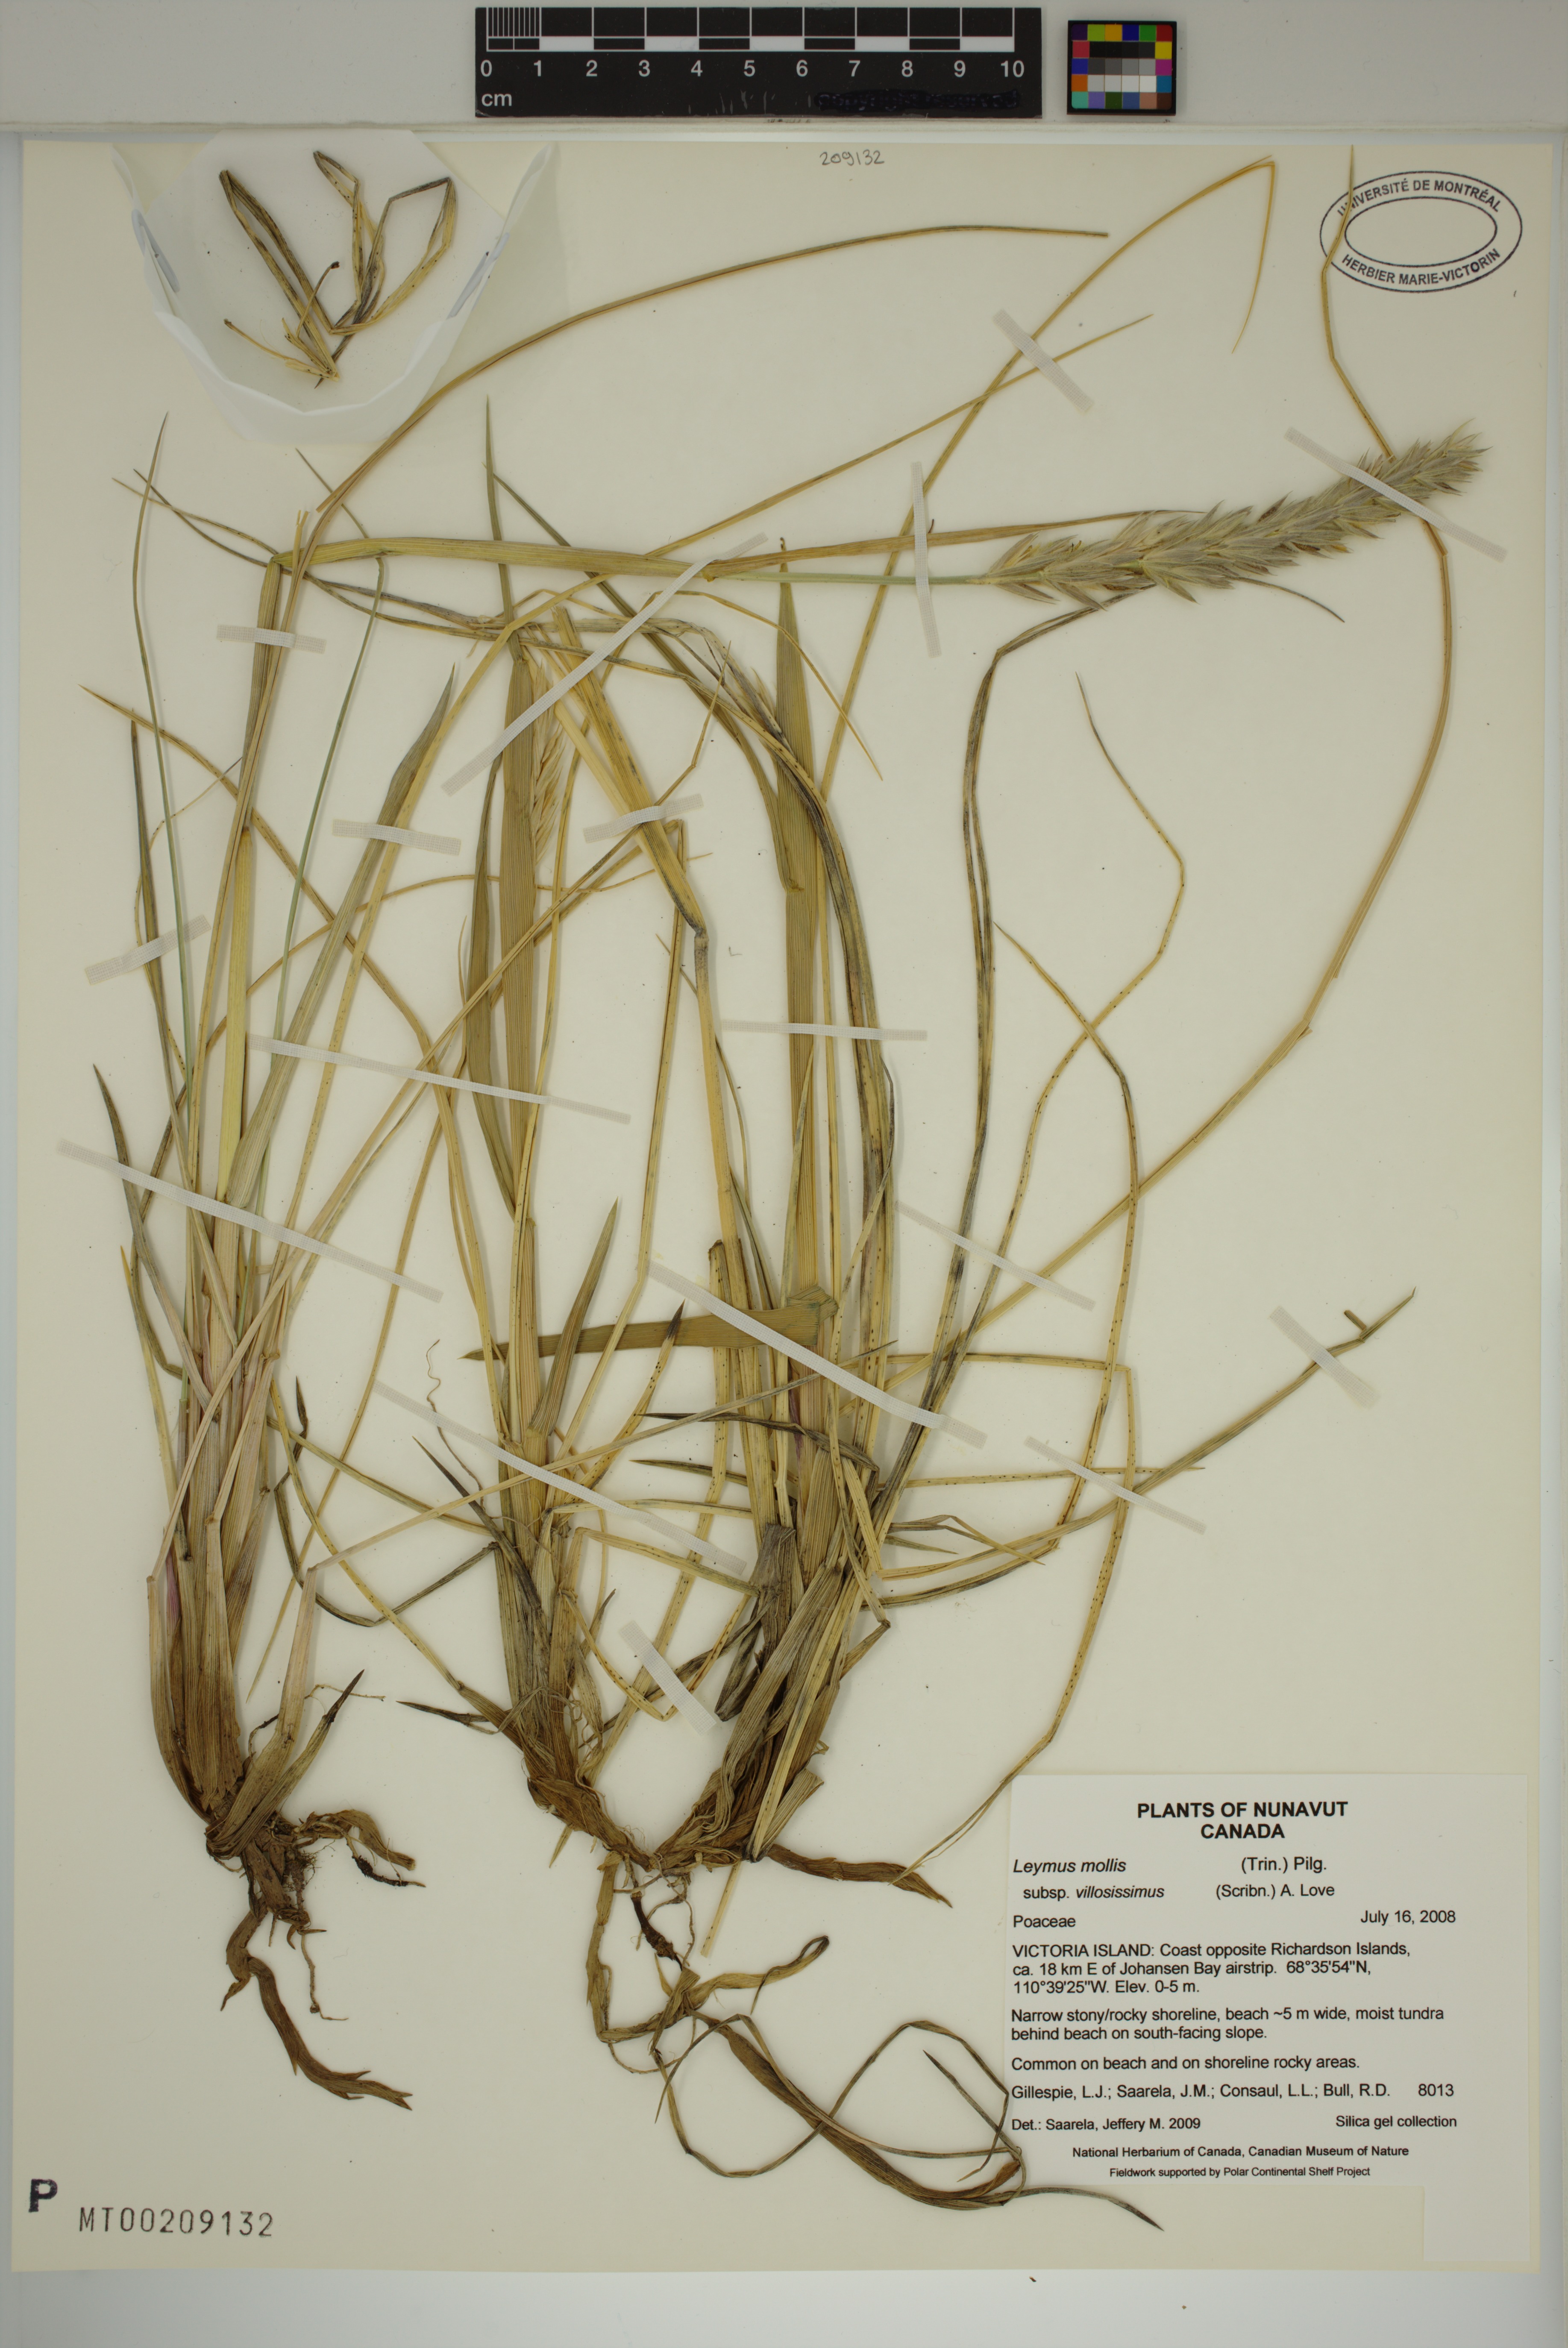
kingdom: Plantae
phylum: Tracheophyta
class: Liliopsida
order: Poales
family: Poaceae
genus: Leymus
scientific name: Leymus villosissimus
